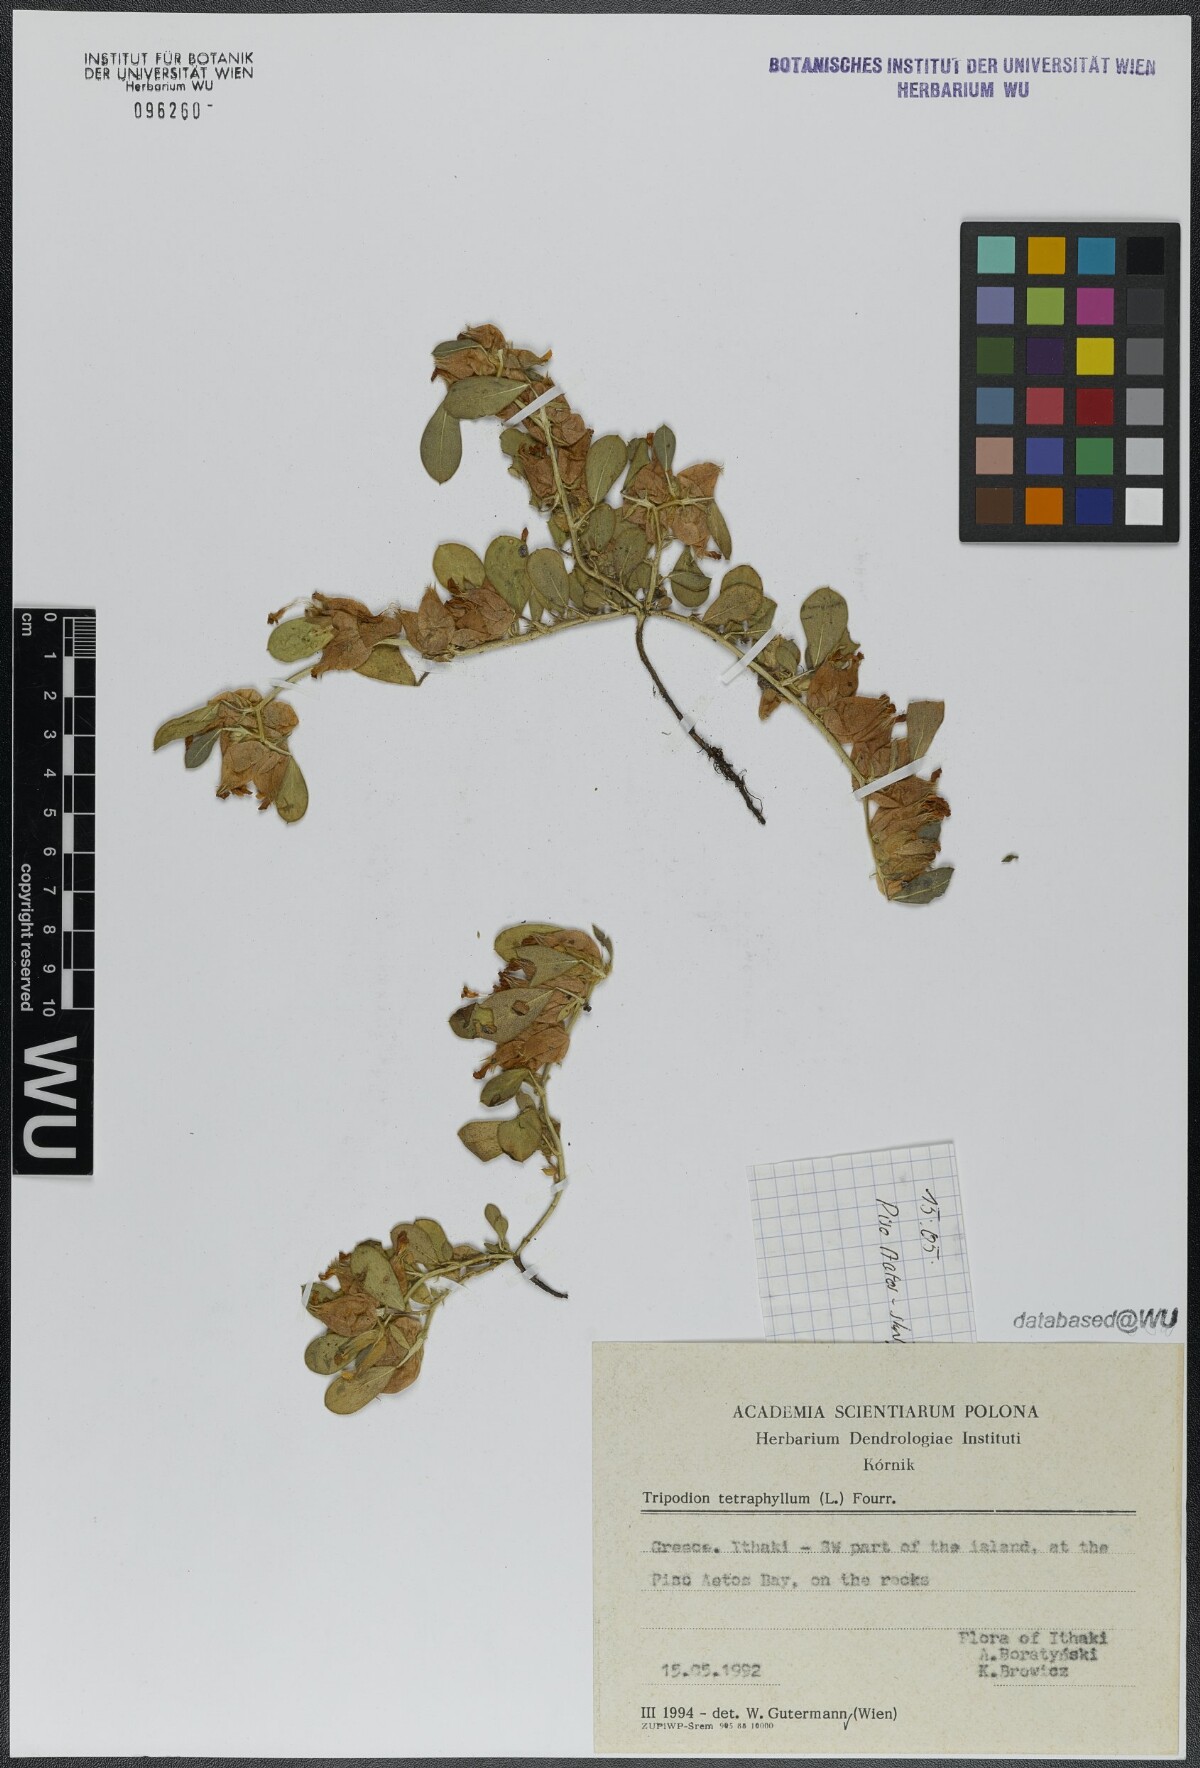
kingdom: Plantae
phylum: Tracheophyta
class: Magnoliopsida
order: Fabales
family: Fabaceae
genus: Tripodion
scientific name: Tripodion tetraphyllum
